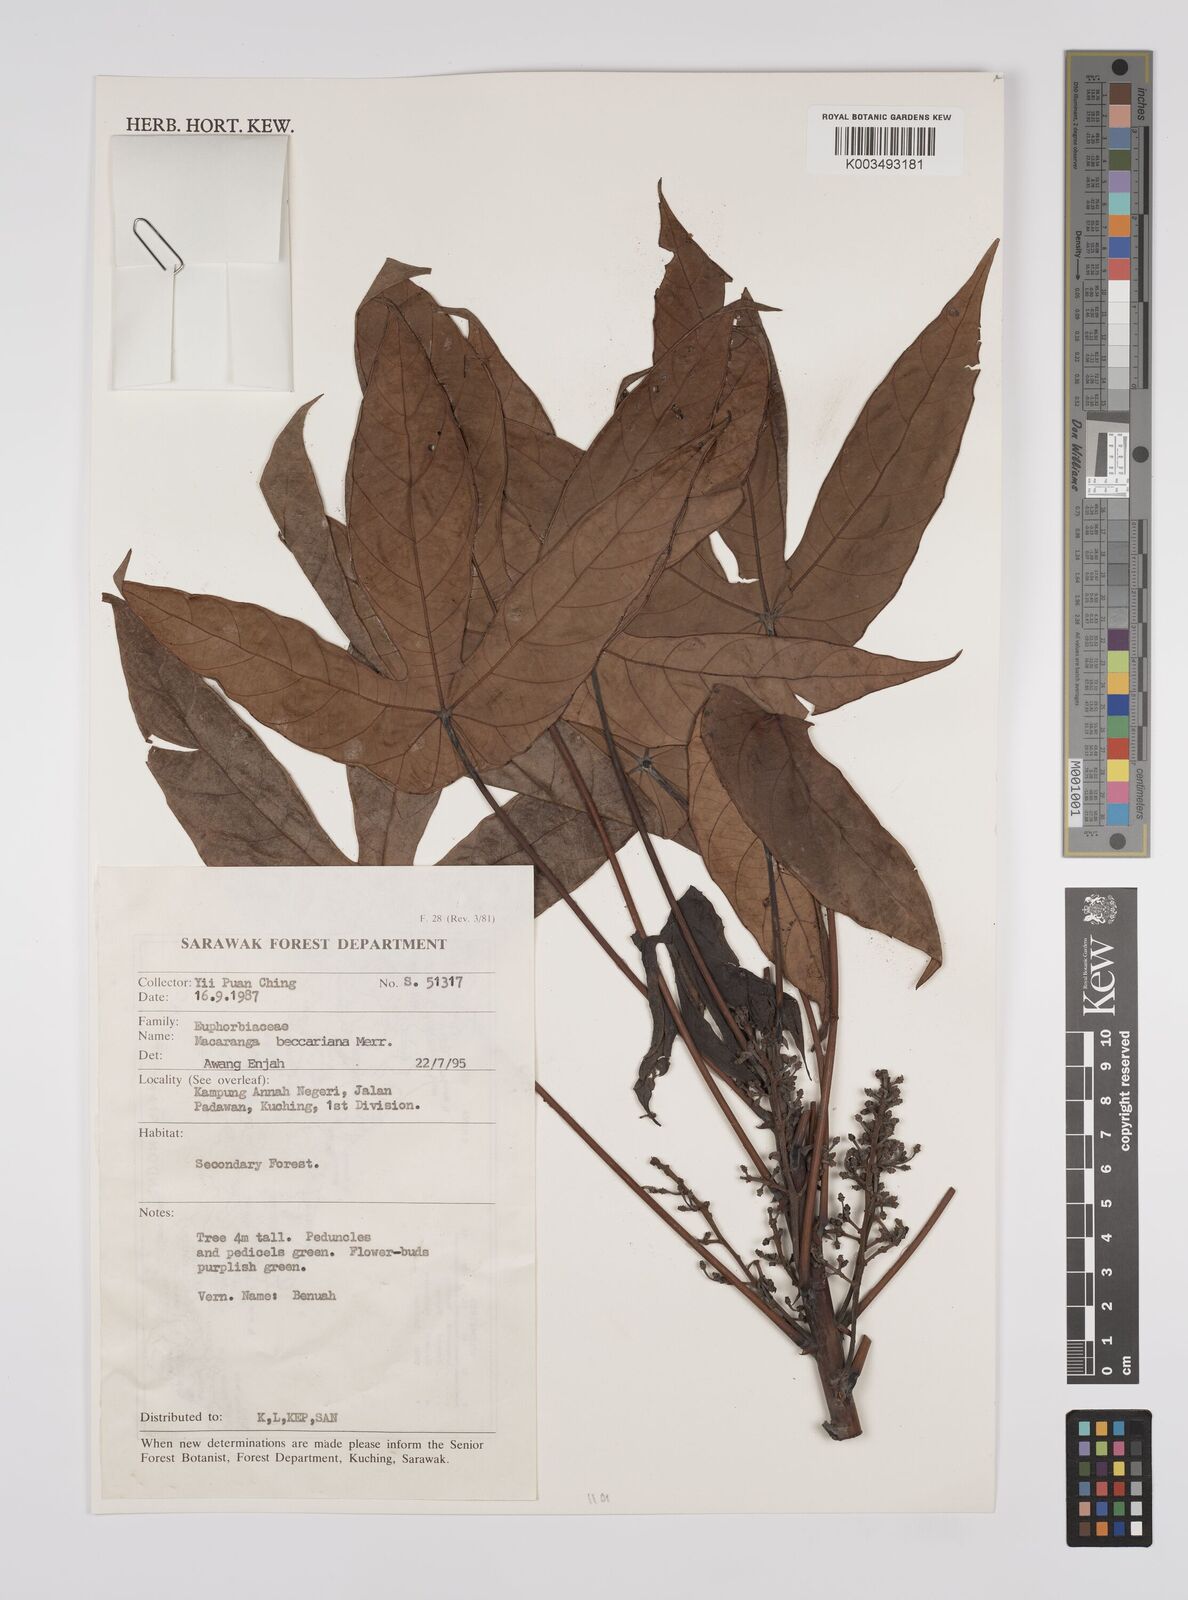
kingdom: Plantae
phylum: Tracheophyta
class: Magnoliopsida
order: Malpighiales
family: Euphorbiaceae
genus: Macaranga
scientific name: Macaranga beccariana
